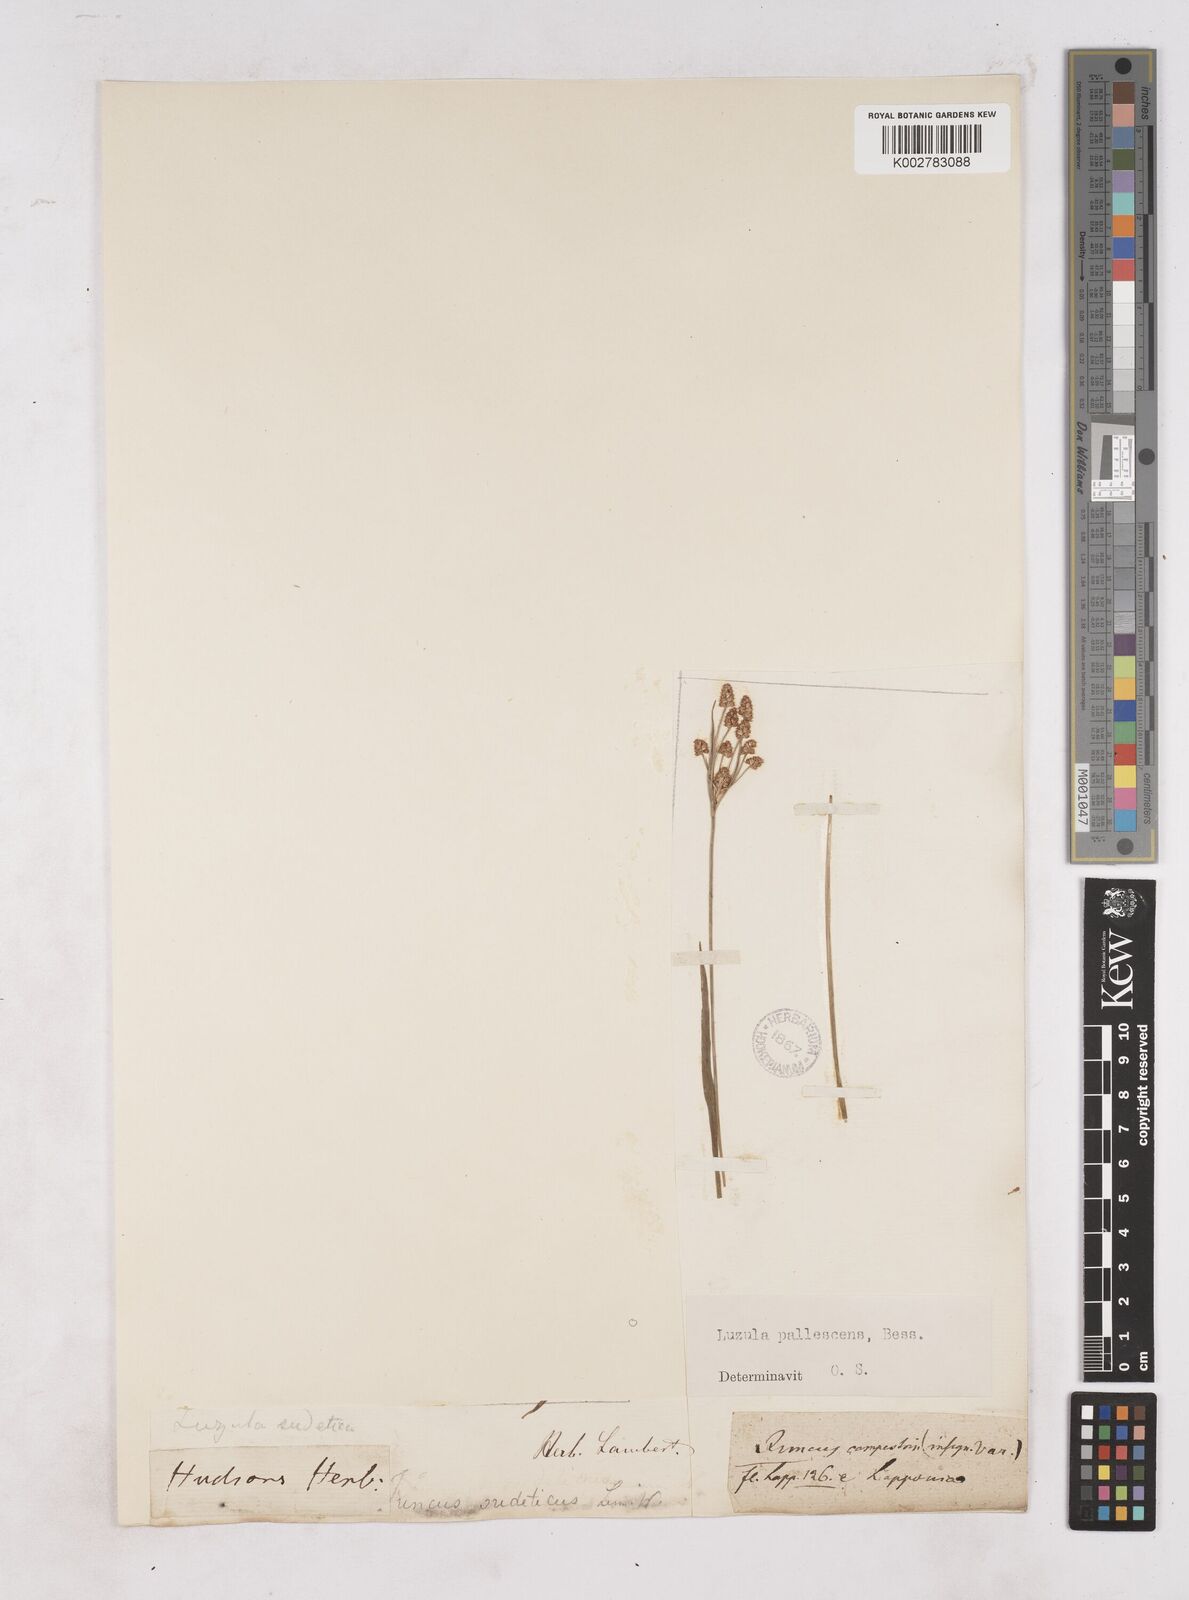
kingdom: Plantae
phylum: Tracheophyta
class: Liliopsida
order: Poales
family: Juncaceae
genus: Luzula
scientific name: Luzula pallescens
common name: Fen wood-rush
